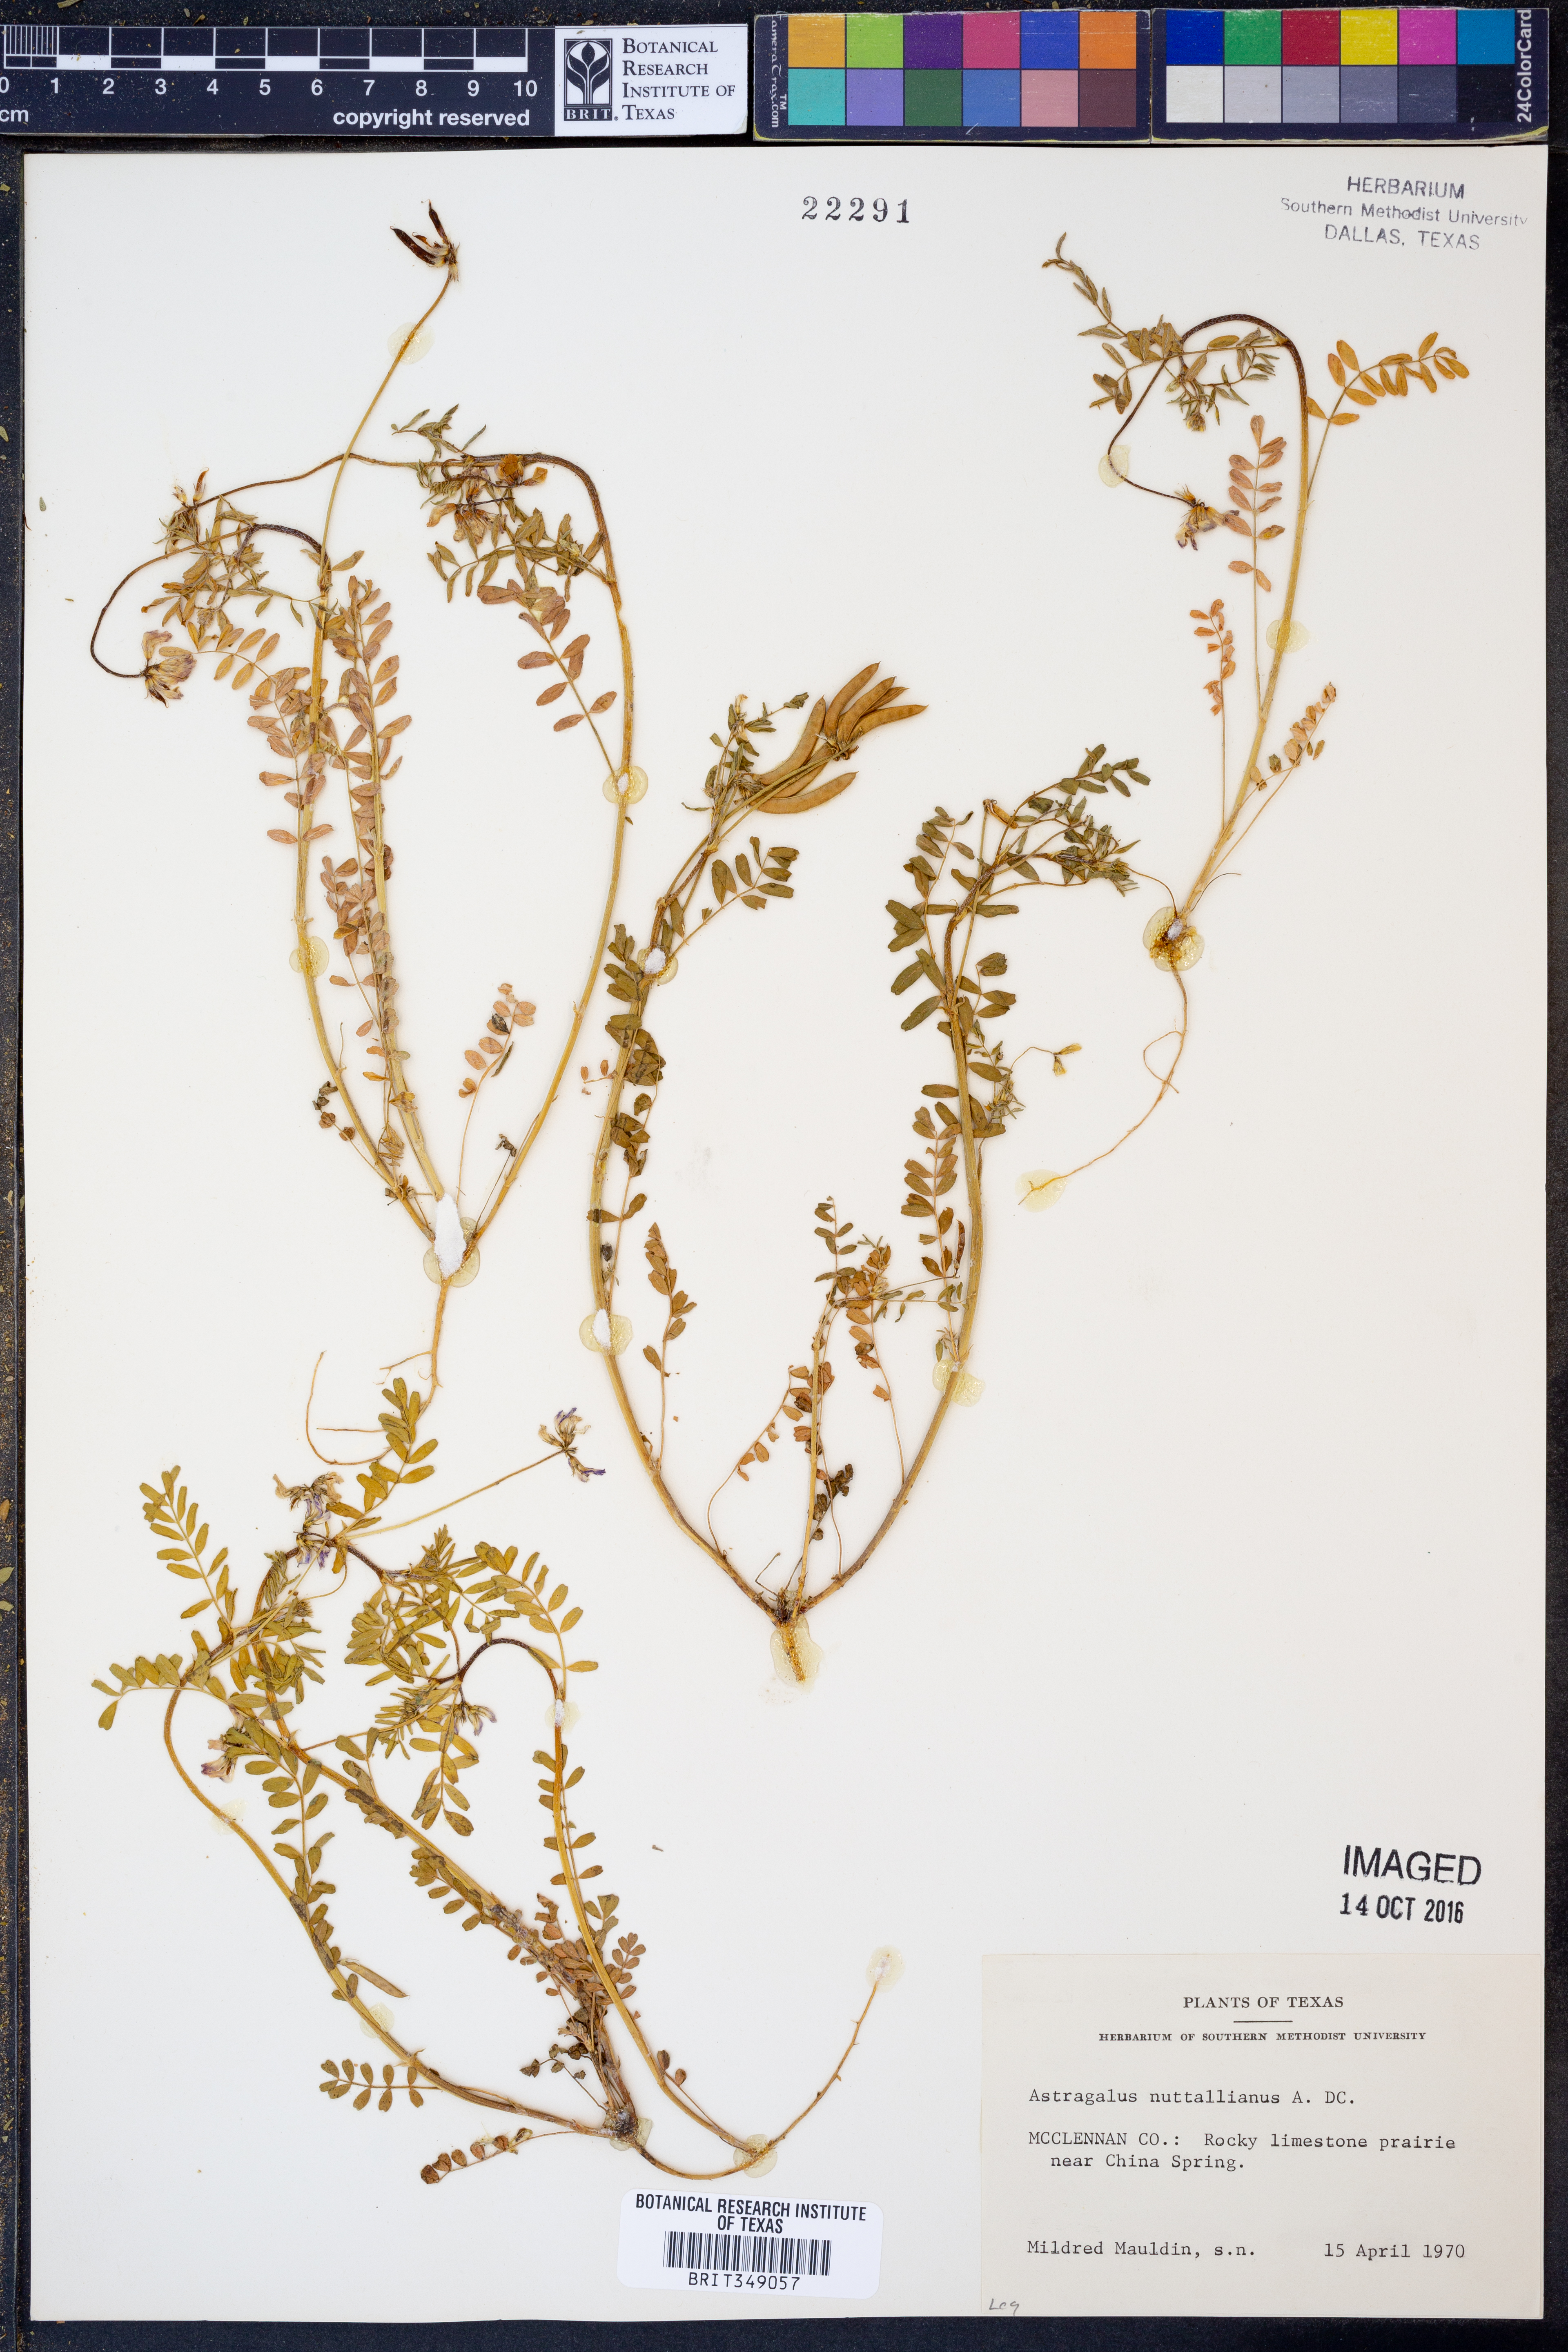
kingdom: Plantae
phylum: Tracheophyta
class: Magnoliopsida
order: Fabales
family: Fabaceae
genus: Astragalus
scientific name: Astragalus nuttallianus
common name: Smallflowered milkvetch
